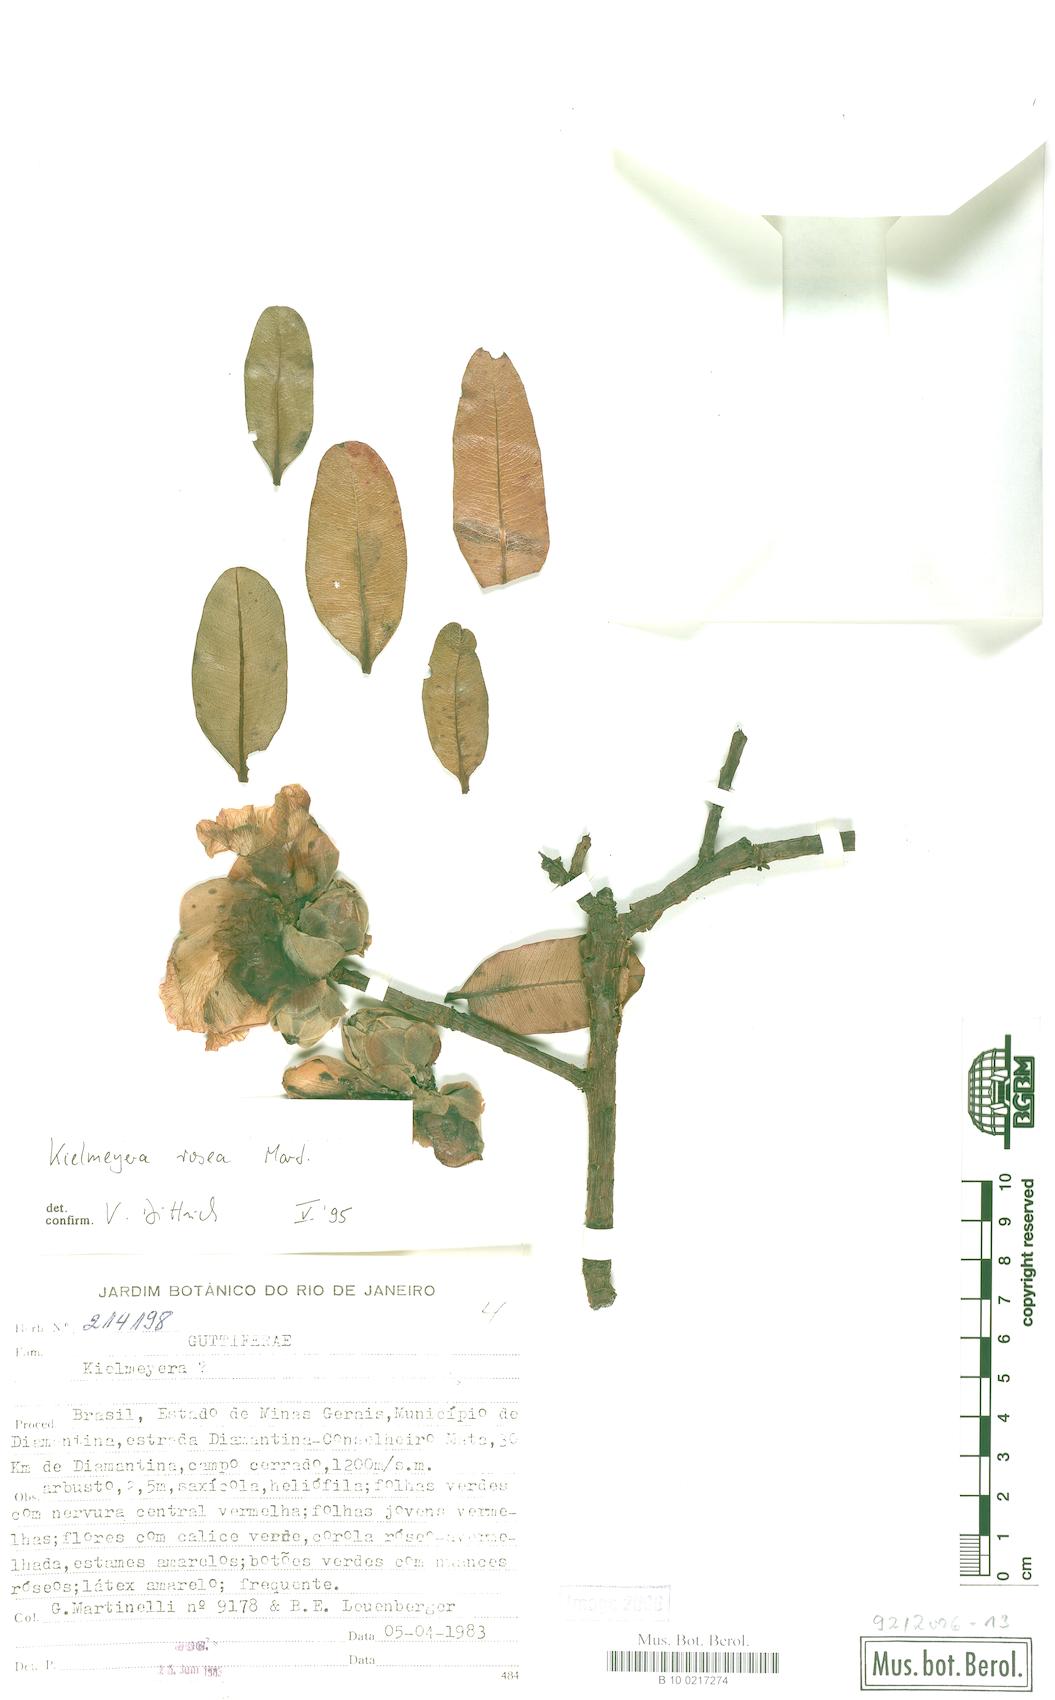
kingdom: Plantae
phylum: Tracheophyta
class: Magnoliopsida
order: Malpighiales
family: Calophyllaceae
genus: Kielmeyera
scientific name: Kielmeyera rosea
